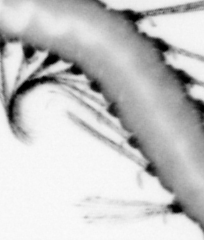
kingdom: Animalia
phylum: Annelida
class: Polychaeta
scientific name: Polychaeta
